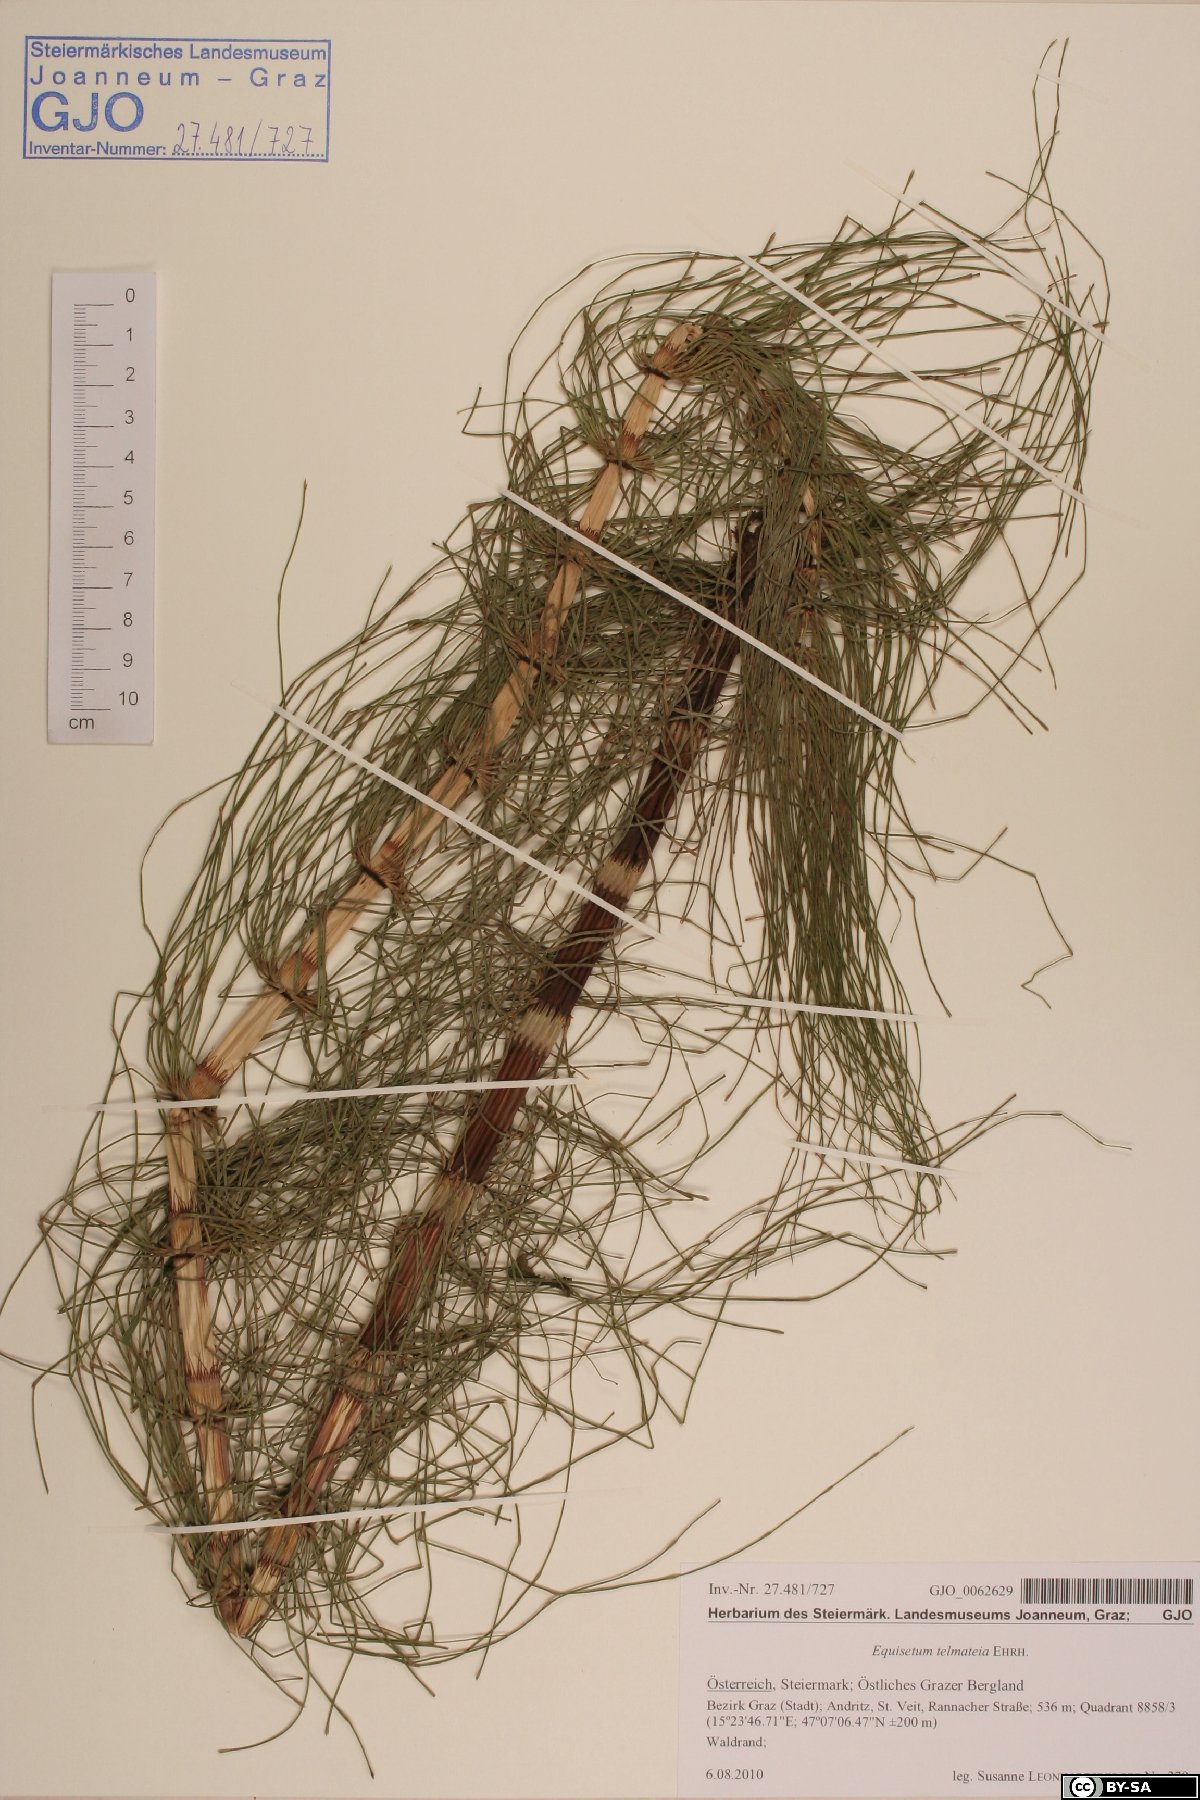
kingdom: Plantae
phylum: Tracheophyta
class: Polypodiopsida
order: Equisetales
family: Equisetaceae
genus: Equisetum
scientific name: Equisetum telmateia
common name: Great horsetail
